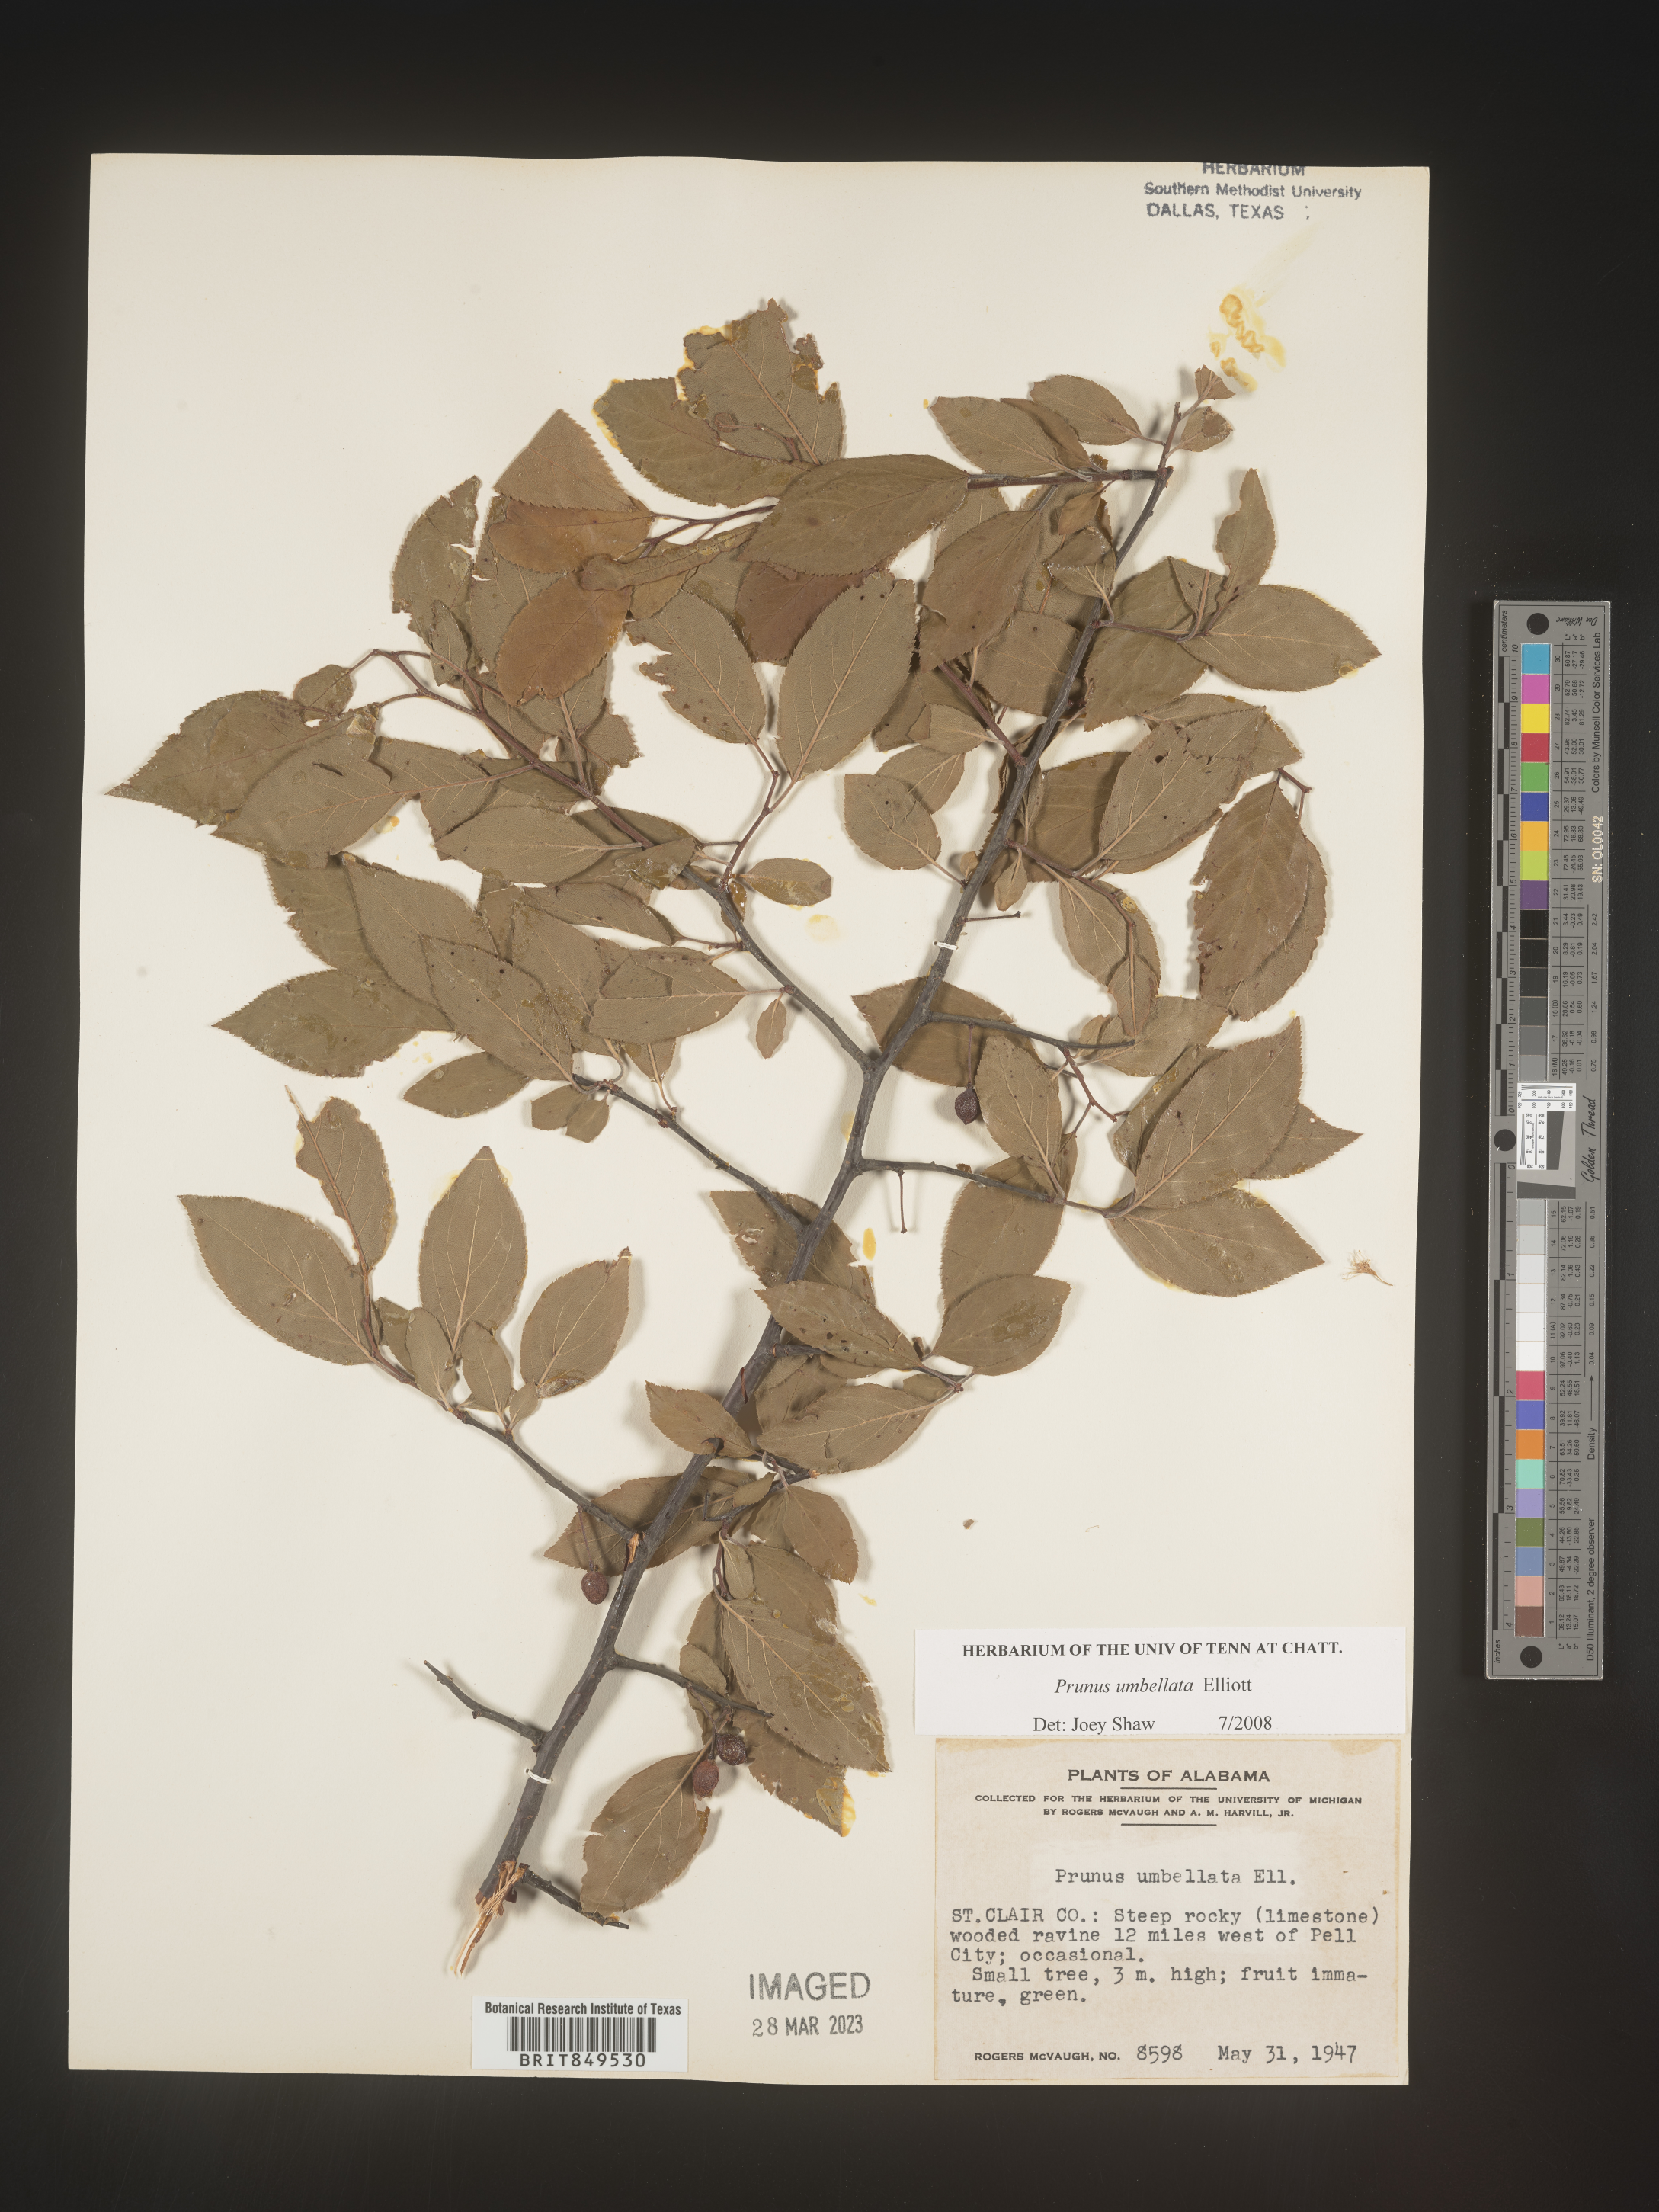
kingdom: Plantae
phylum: Tracheophyta
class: Magnoliopsida
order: Rosales
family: Rosaceae
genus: Prunus
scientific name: Prunus umbellata
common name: Allegheny plum
